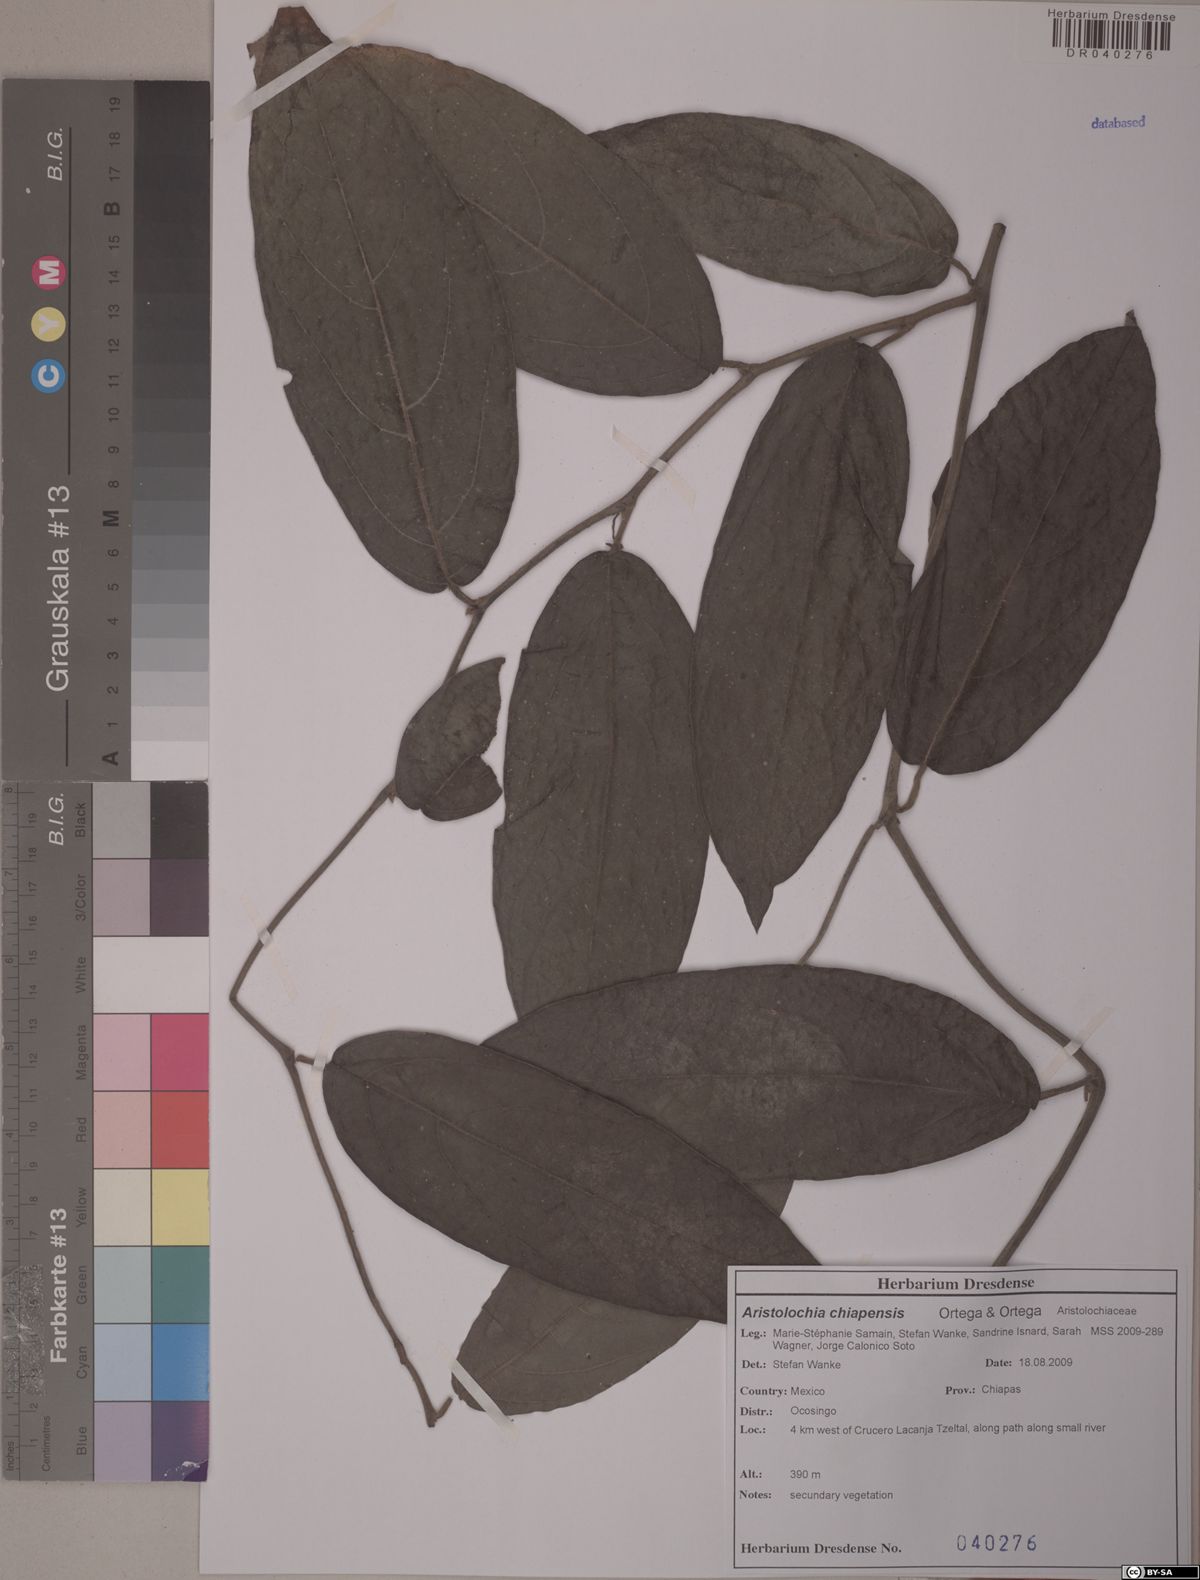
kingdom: Plantae
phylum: Tracheophyta
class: Magnoliopsida
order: Piperales
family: Aristolochiaceae
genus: Isotrema
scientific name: Isotrema paracletum
